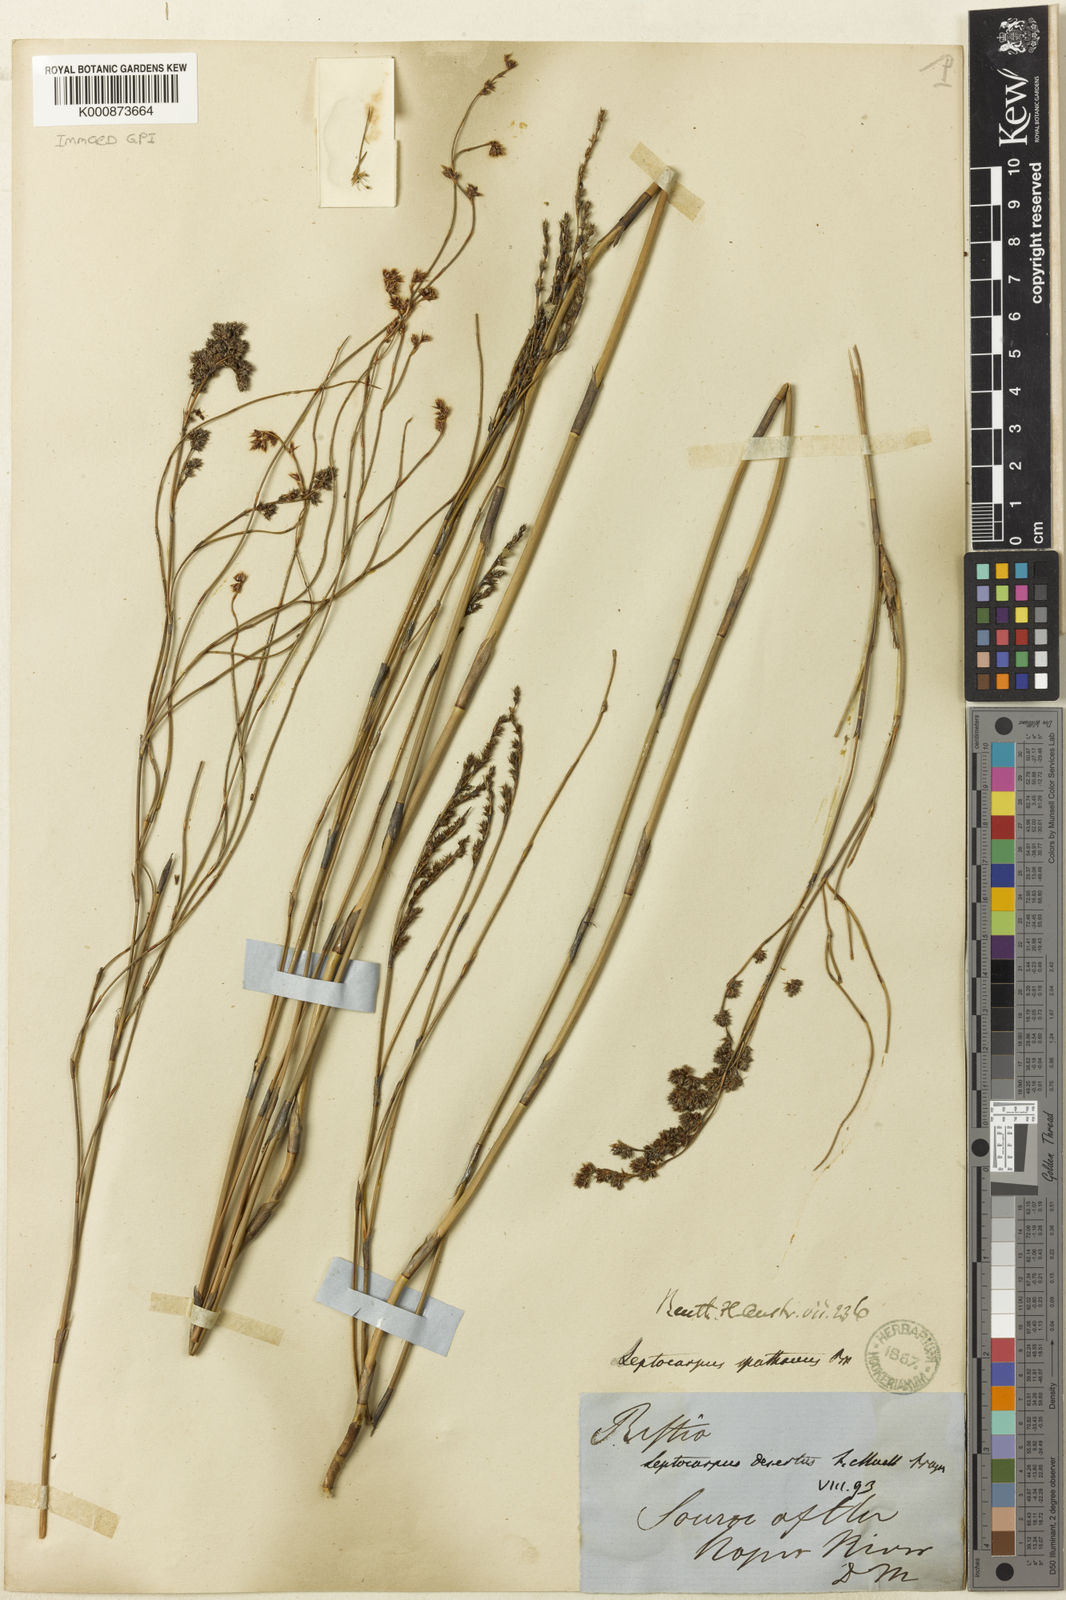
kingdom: Plantae
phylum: Tracheophyta
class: Liliopsida
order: Poales
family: Restionaceae
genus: Dapsilanthus
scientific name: Dapsilanthus spathaceus
